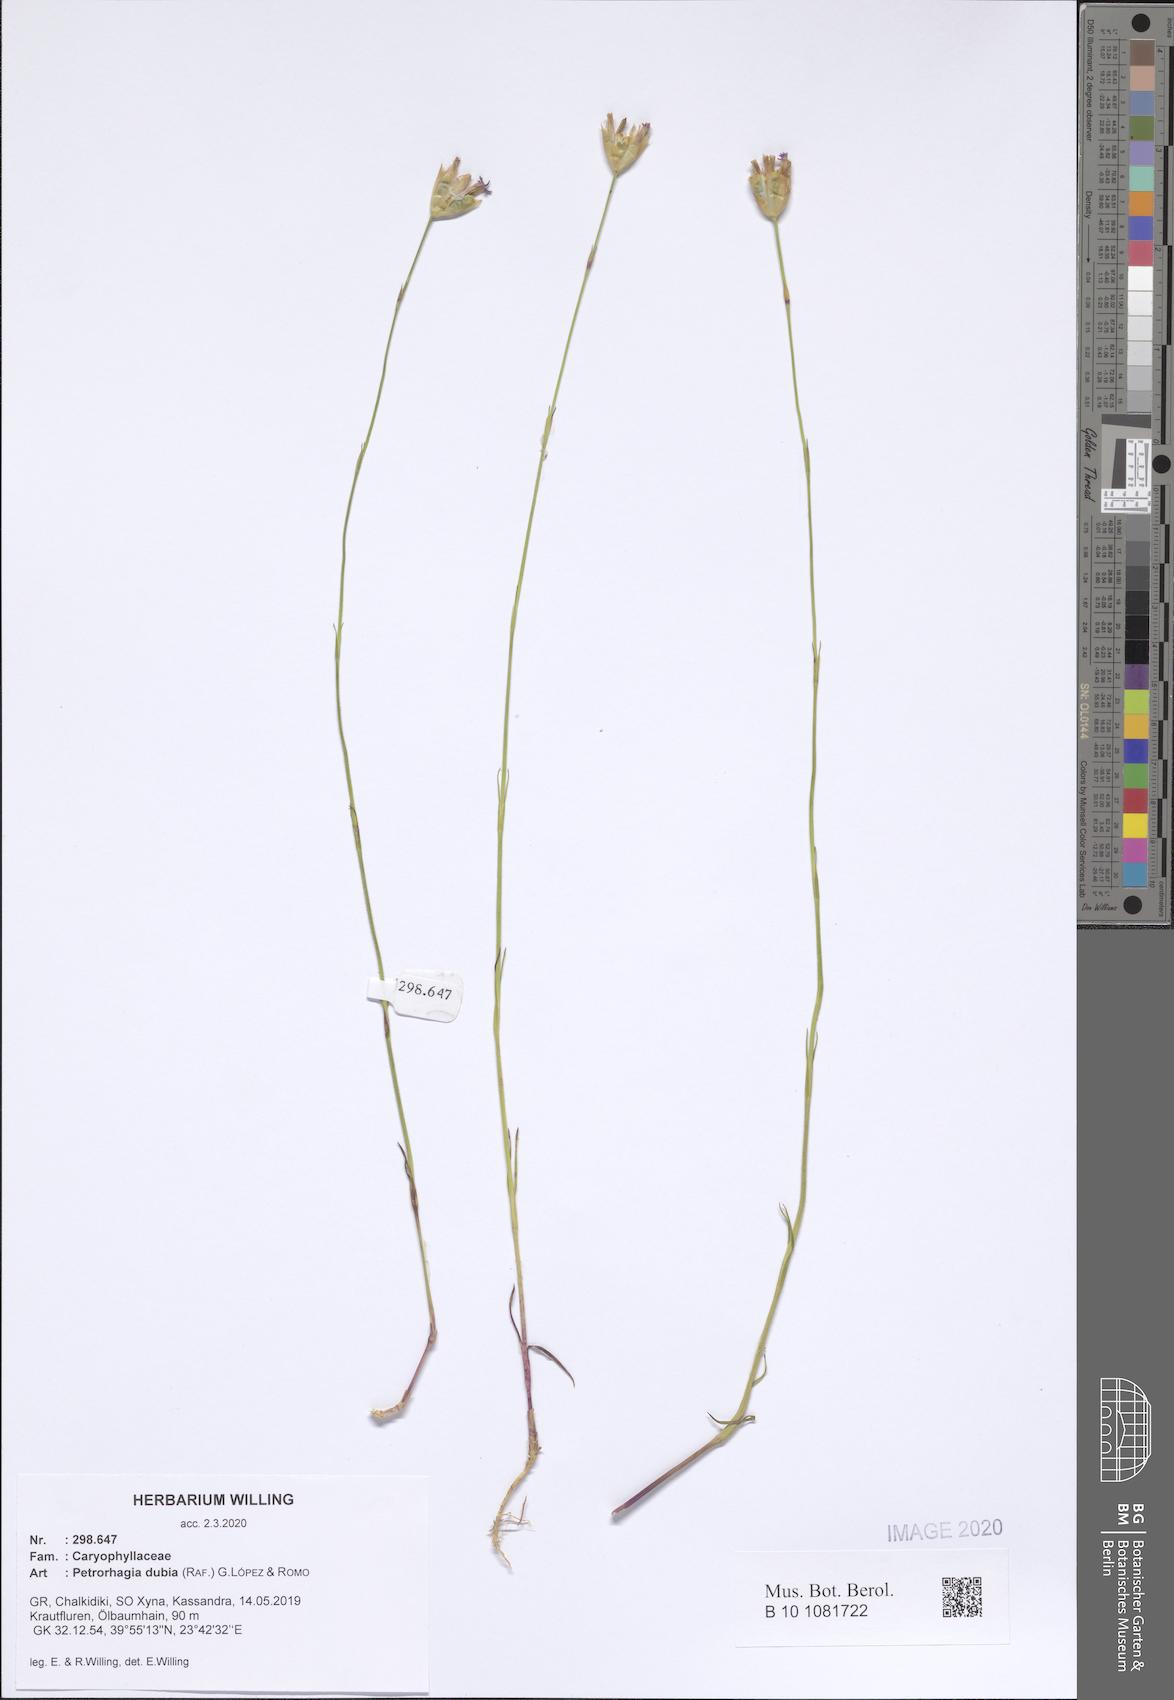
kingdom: Plantae
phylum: Tracheophyta
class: Magnoliopsida
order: Caryophyllales
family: Caryophyllaceae
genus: Petrorhagia
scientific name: Petrorhagia dubia
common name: Hairypink
